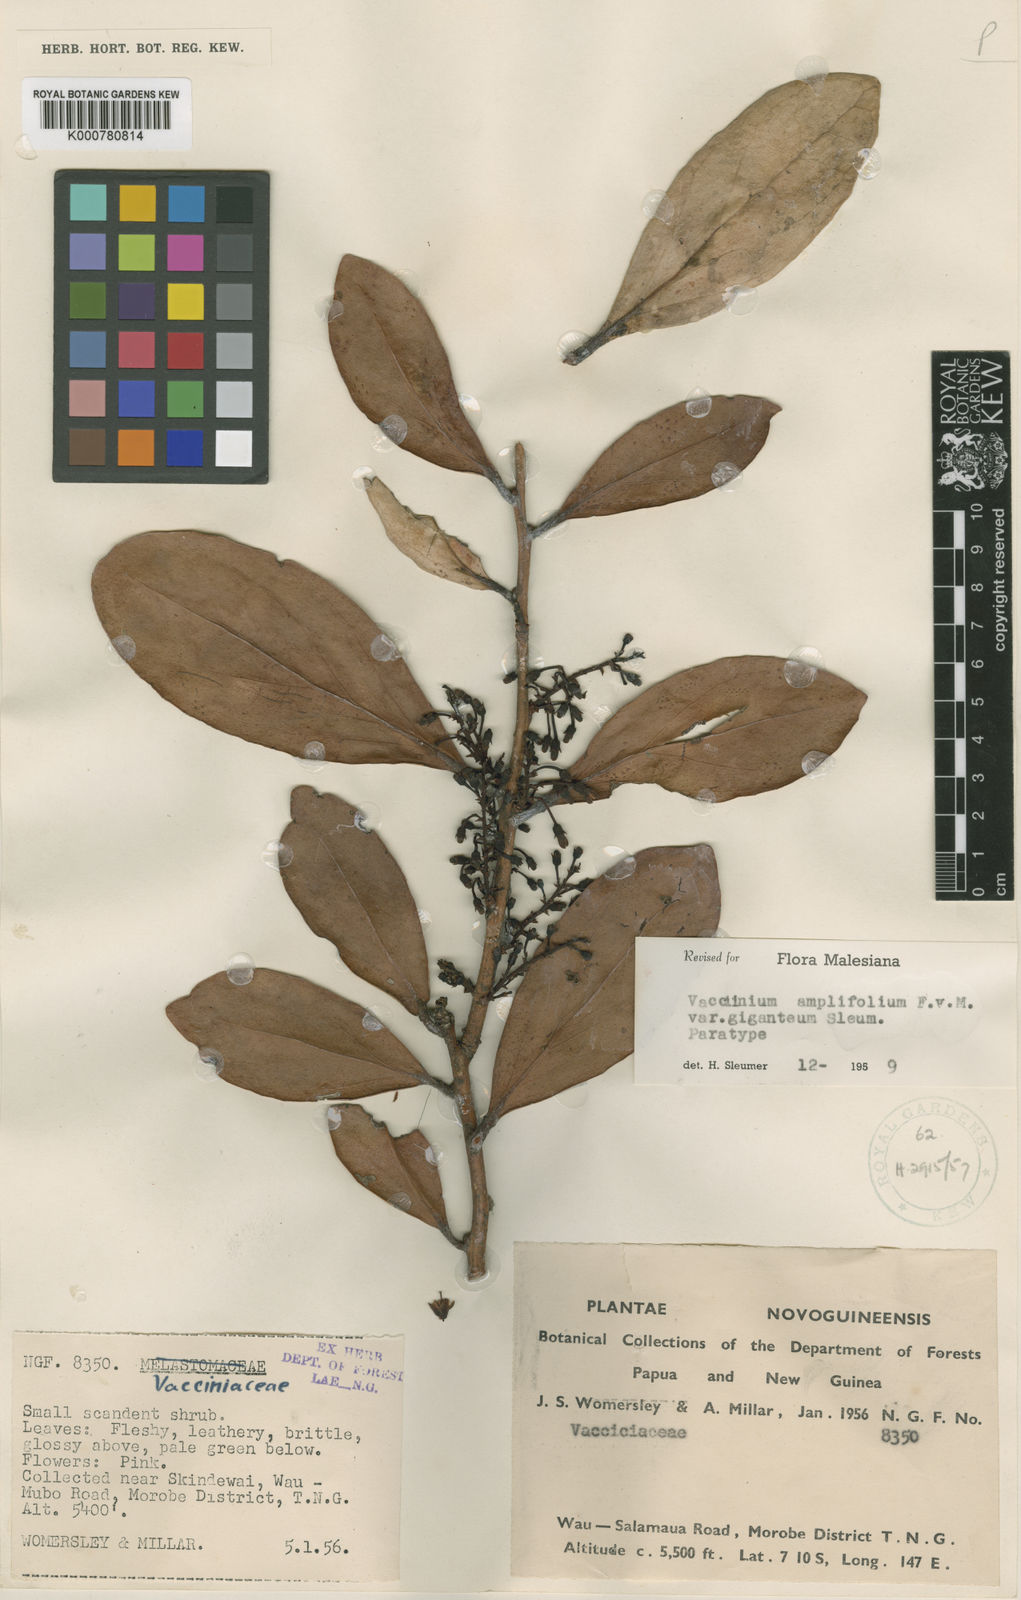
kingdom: Plantae
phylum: Tracheophyta
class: Magnoliopsida
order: Ericales
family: Ericaceae
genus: Dimorphanthera
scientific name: Dimorphanthera amplifolia
